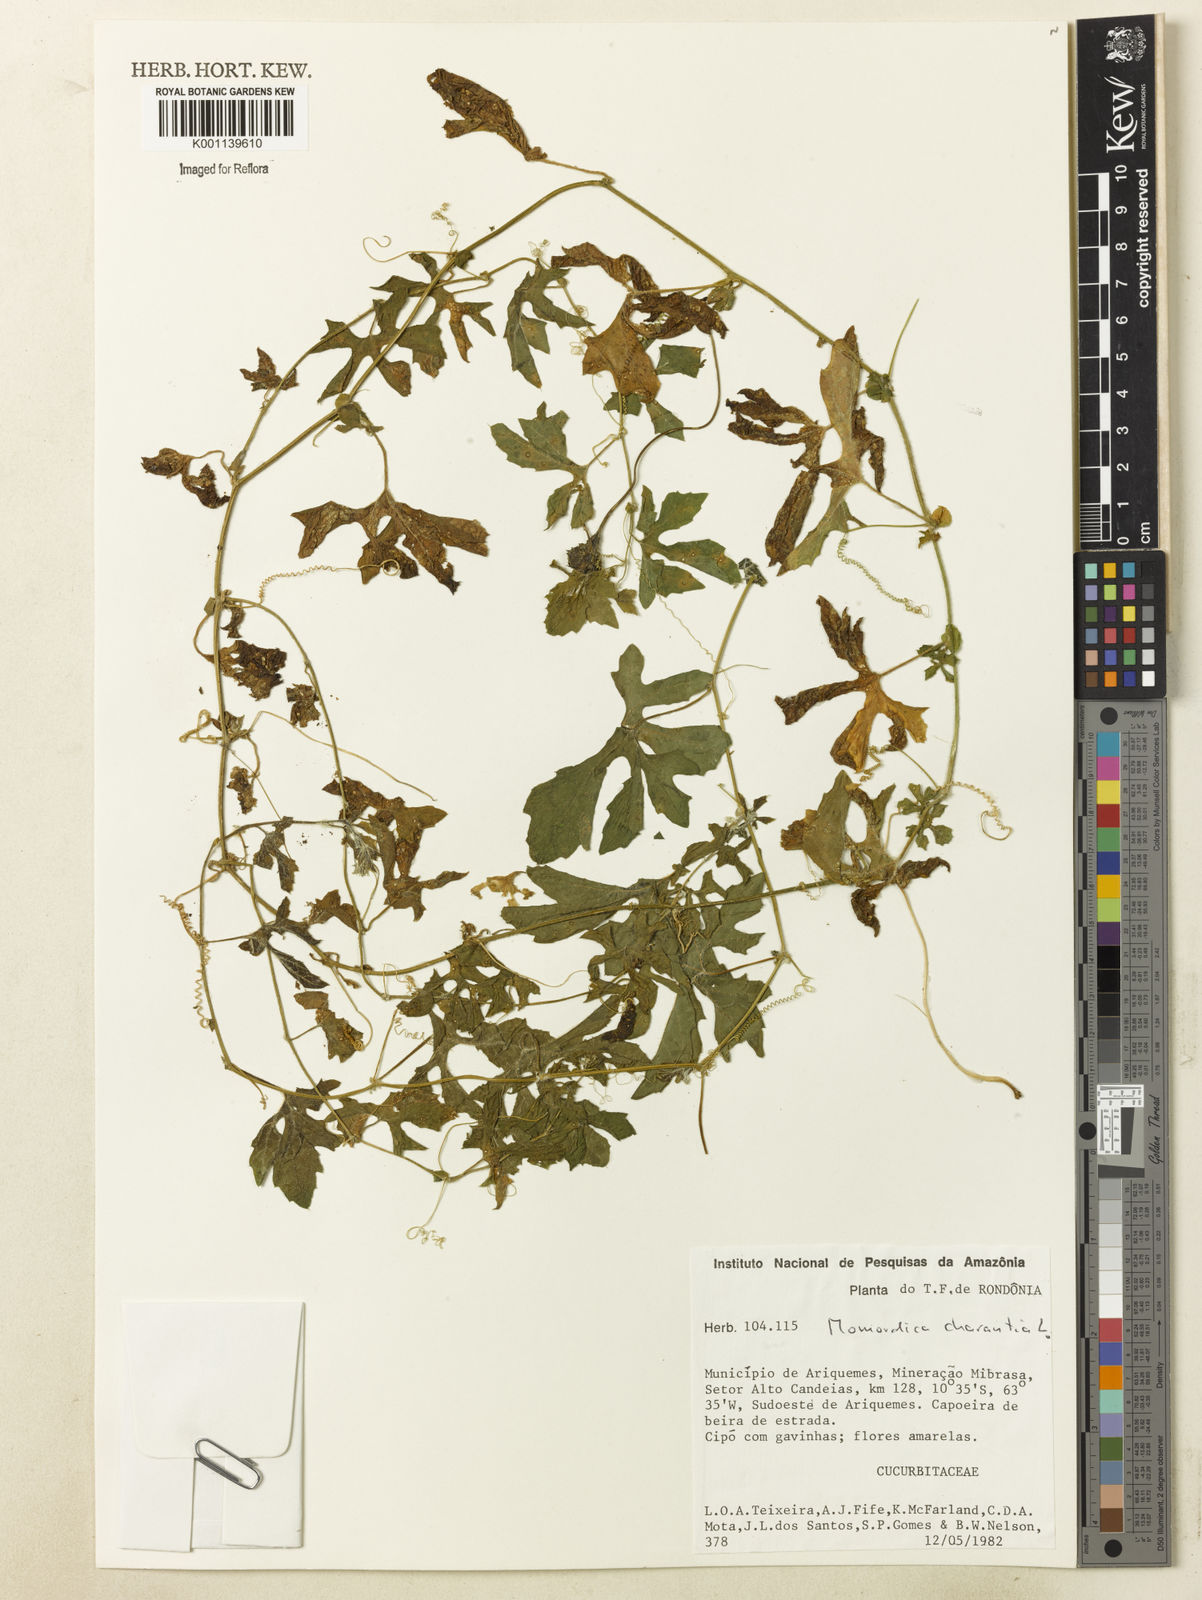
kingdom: Plantae
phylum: Tracheophyta
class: Magnoliopsida
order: Cucurbitales
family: Cucurbitaceae
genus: Momordica
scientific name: Momordica charantia
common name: Balsampear
